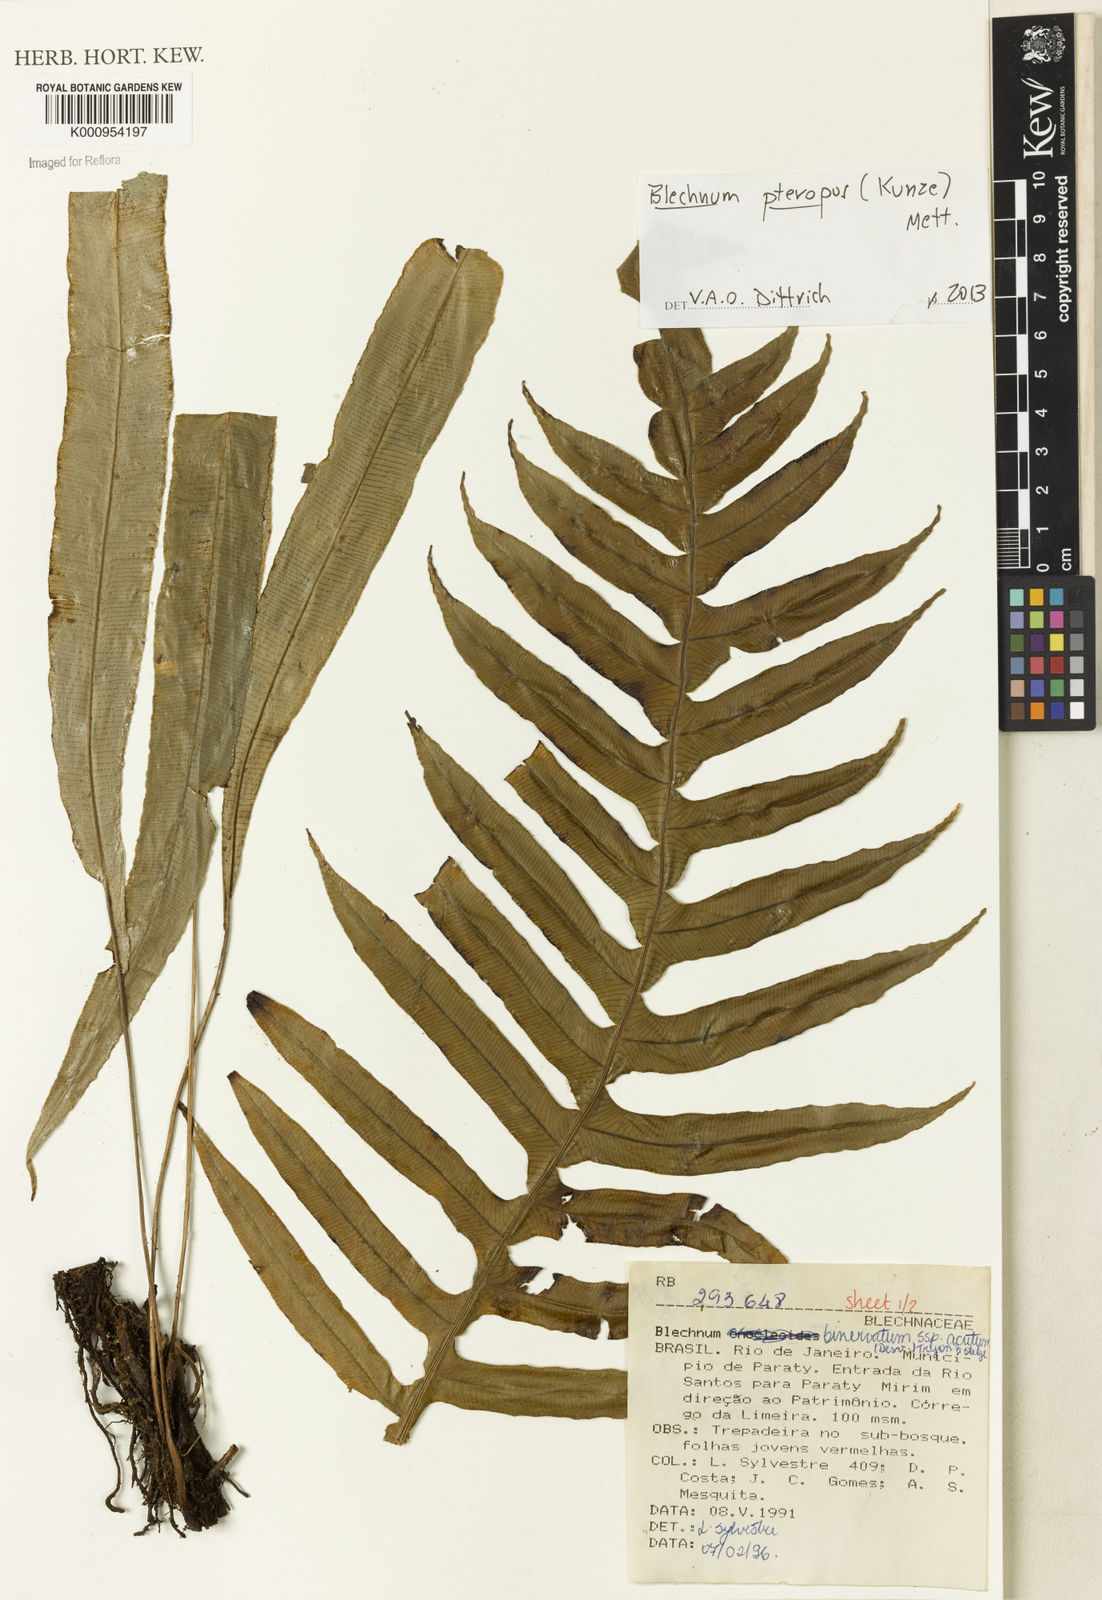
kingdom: Plantae
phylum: Tracheophyta
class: Polypodiopsida
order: Polypodiales
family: Blechnaceae
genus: Lomaridium
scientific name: Lomaridium acutum
